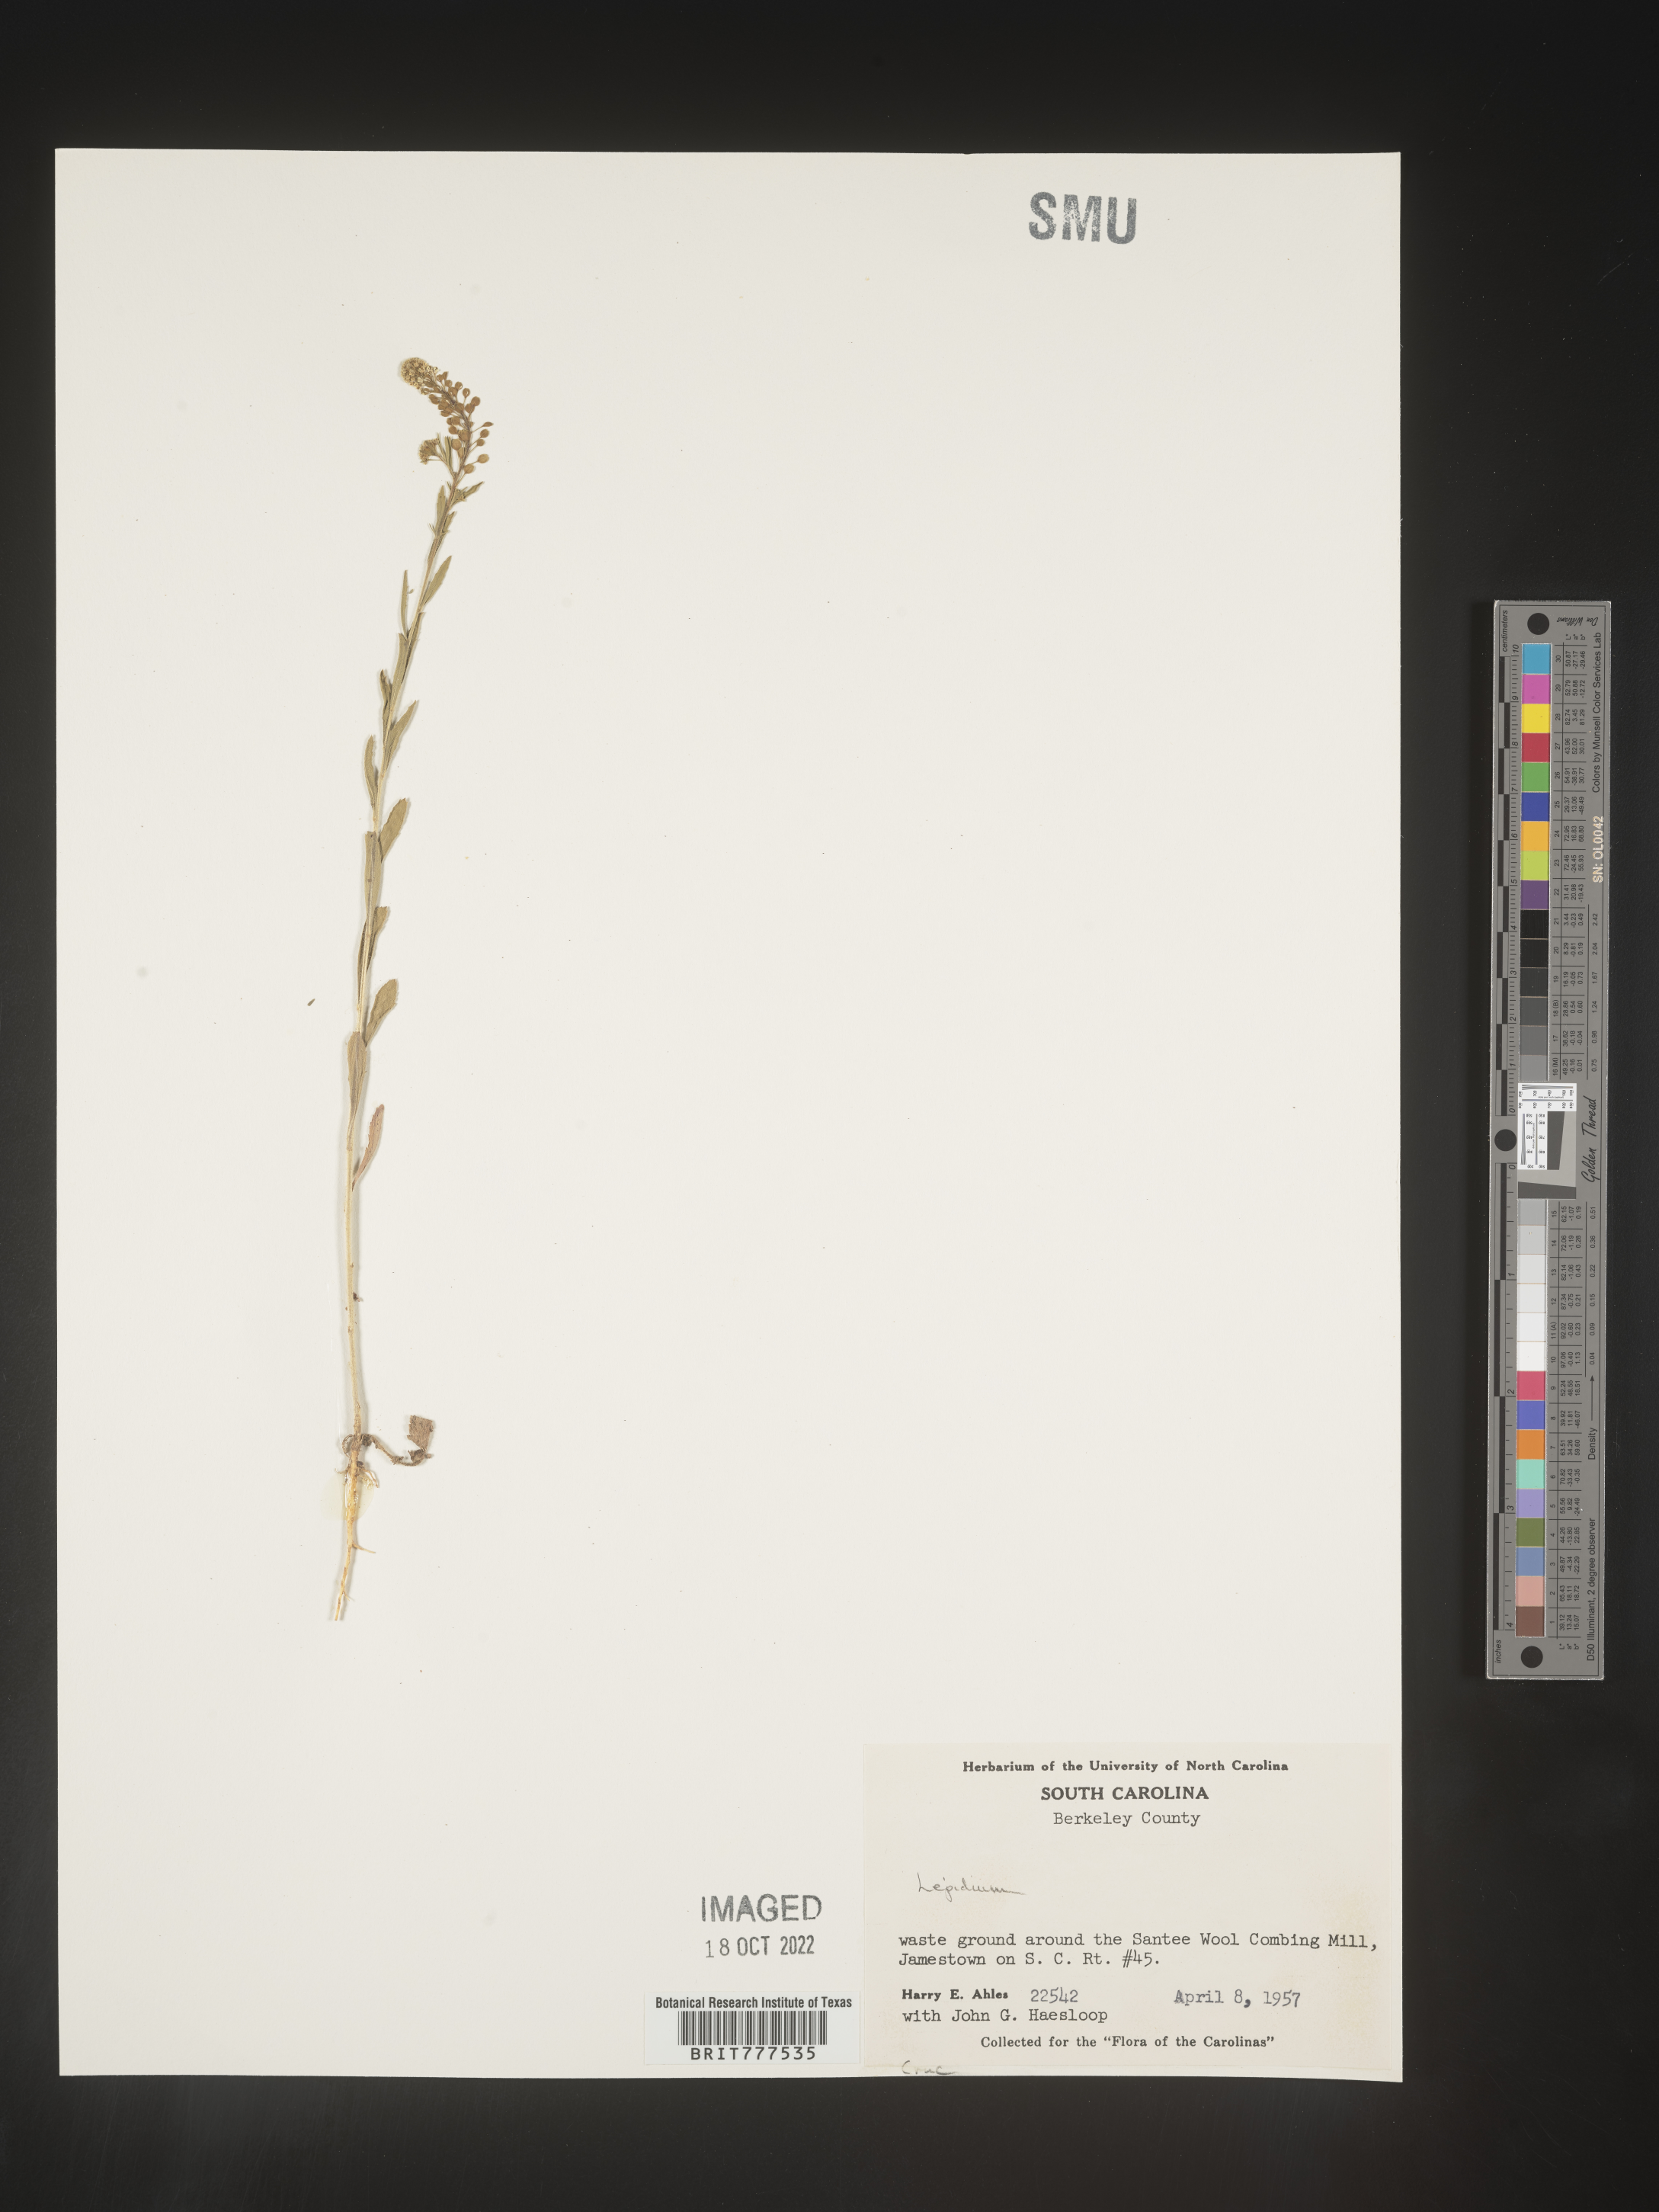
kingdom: Plantae
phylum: Tracheophyta
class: Magnoliopsida
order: Brassicales
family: Brassicaceae
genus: Lepidium
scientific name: Lepidium
